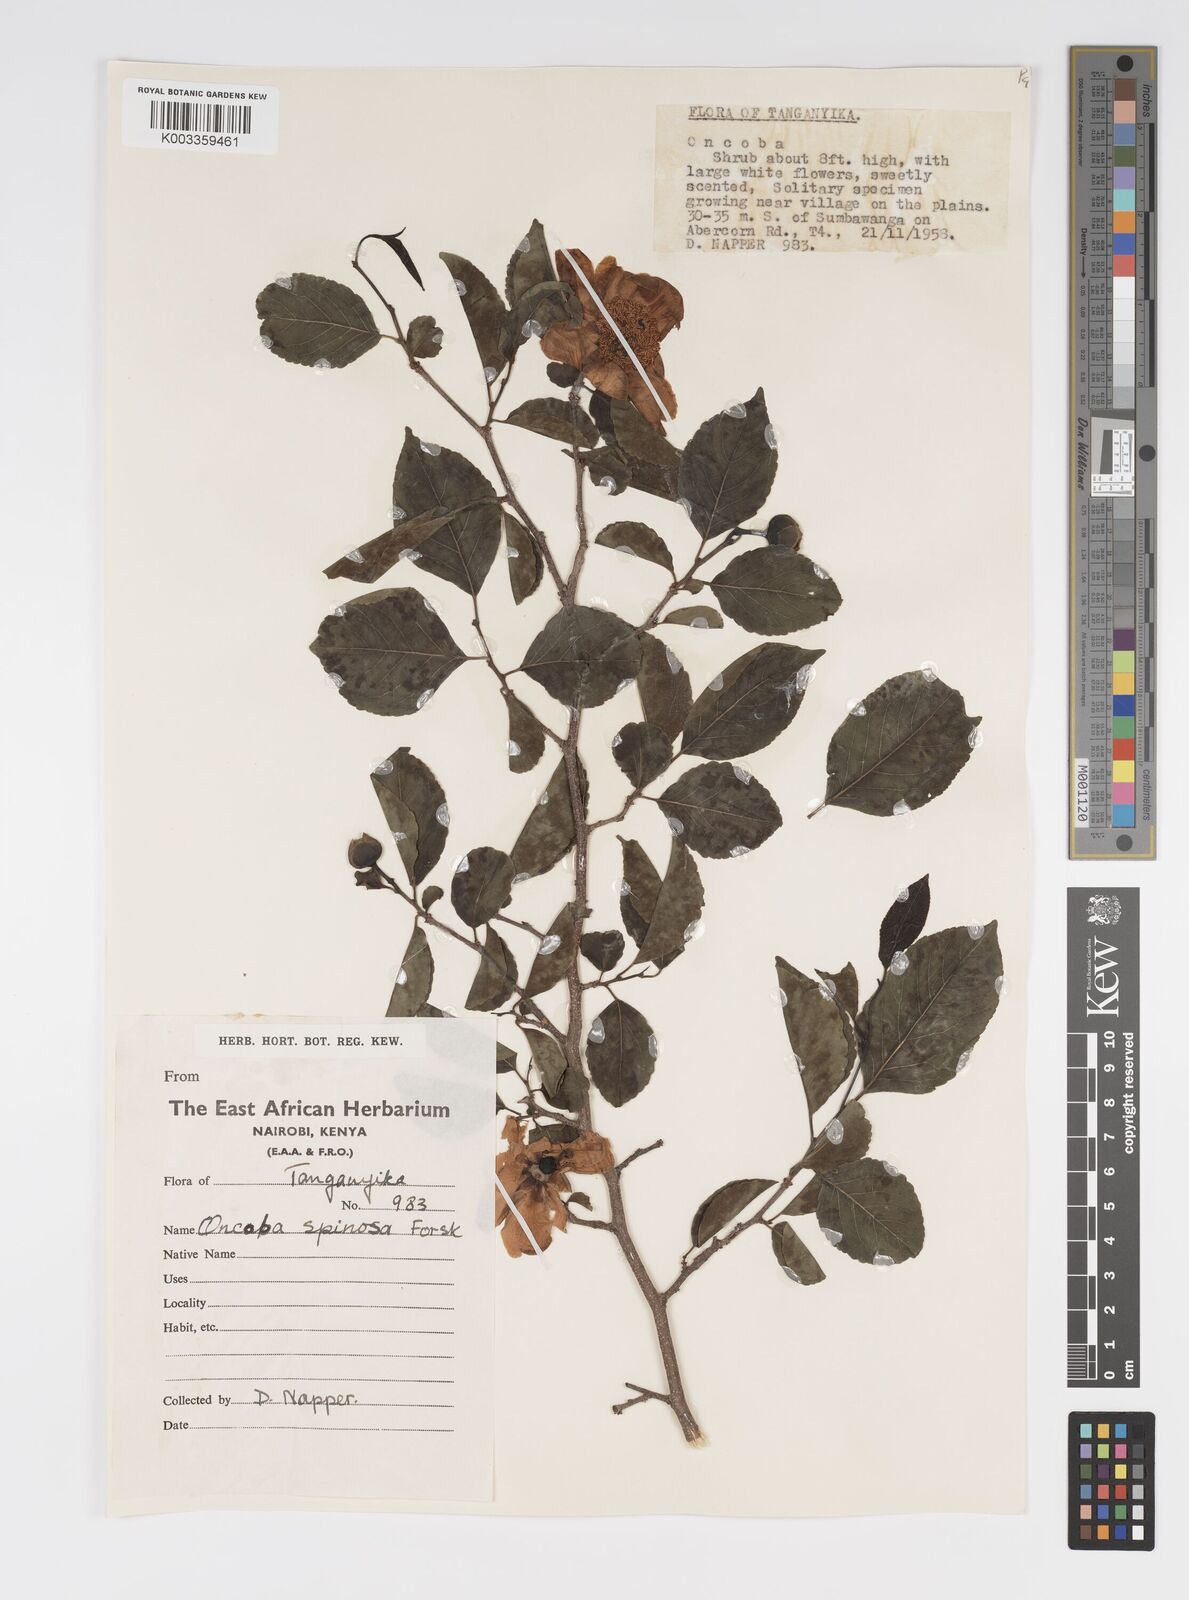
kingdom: Plantae
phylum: Tracheophyta
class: Magnoliopsida
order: Malpighiales
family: Salicaceae
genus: Oncoba
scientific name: Oncoba spinosa
